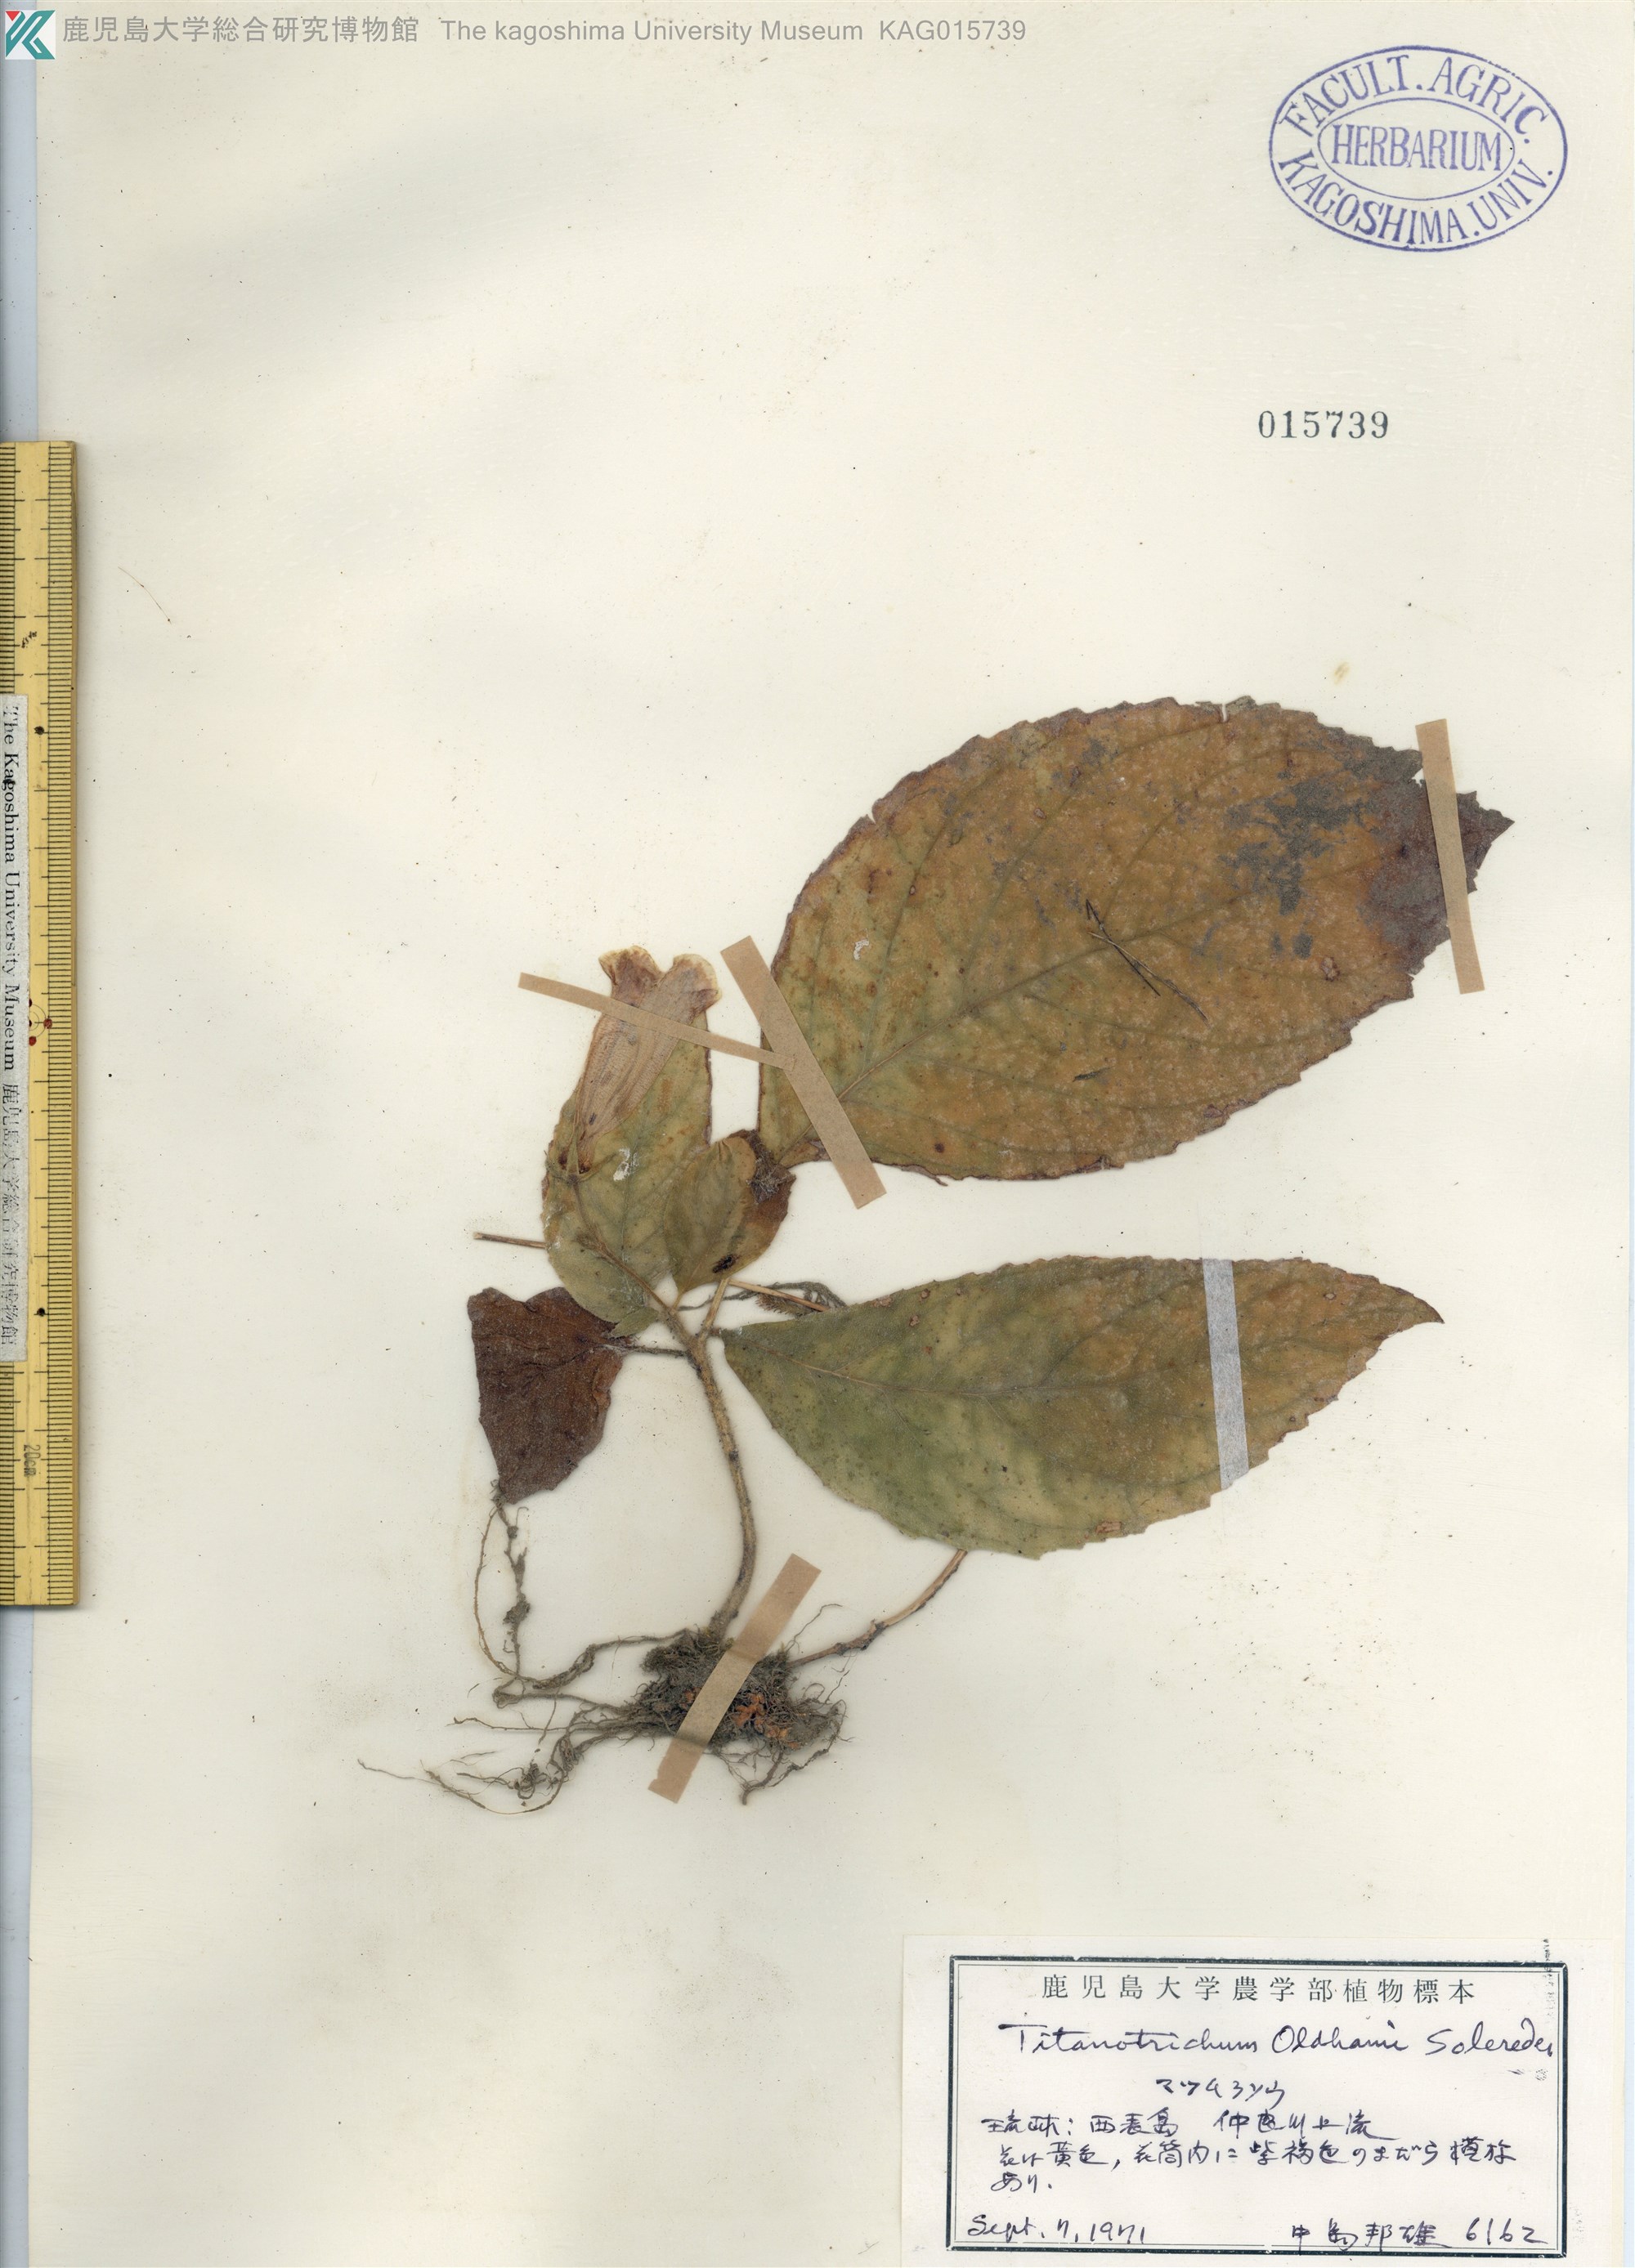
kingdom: Plantae
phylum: Tracheophyta
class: Magnoliopsida
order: Lamiales
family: Gesneriaceae
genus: Titanotrichum
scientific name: Titanotrichum oldhamii
